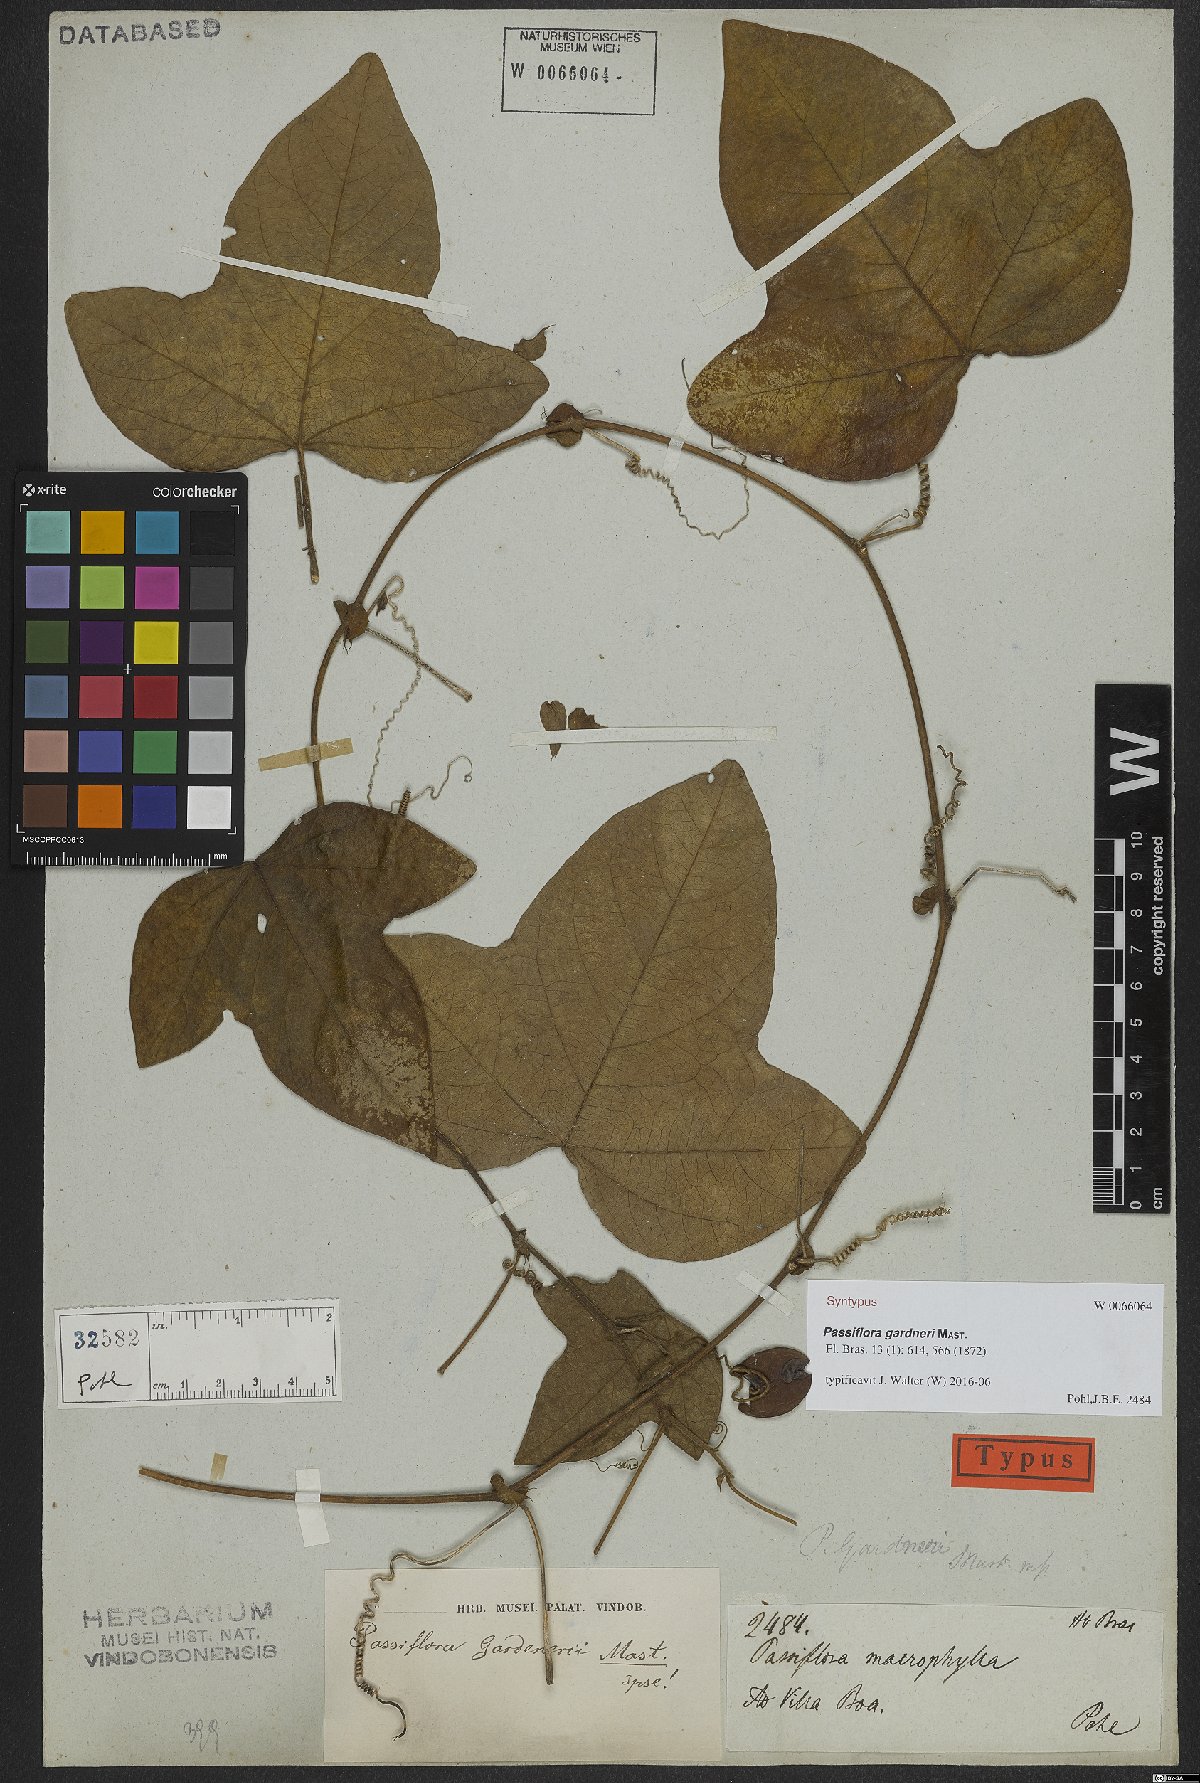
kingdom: Plantae
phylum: Tracheophyta
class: Magnoliopsida
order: Malpighiales
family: Passifloraceae
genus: Passiflora
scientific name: Passiflora gardneri
